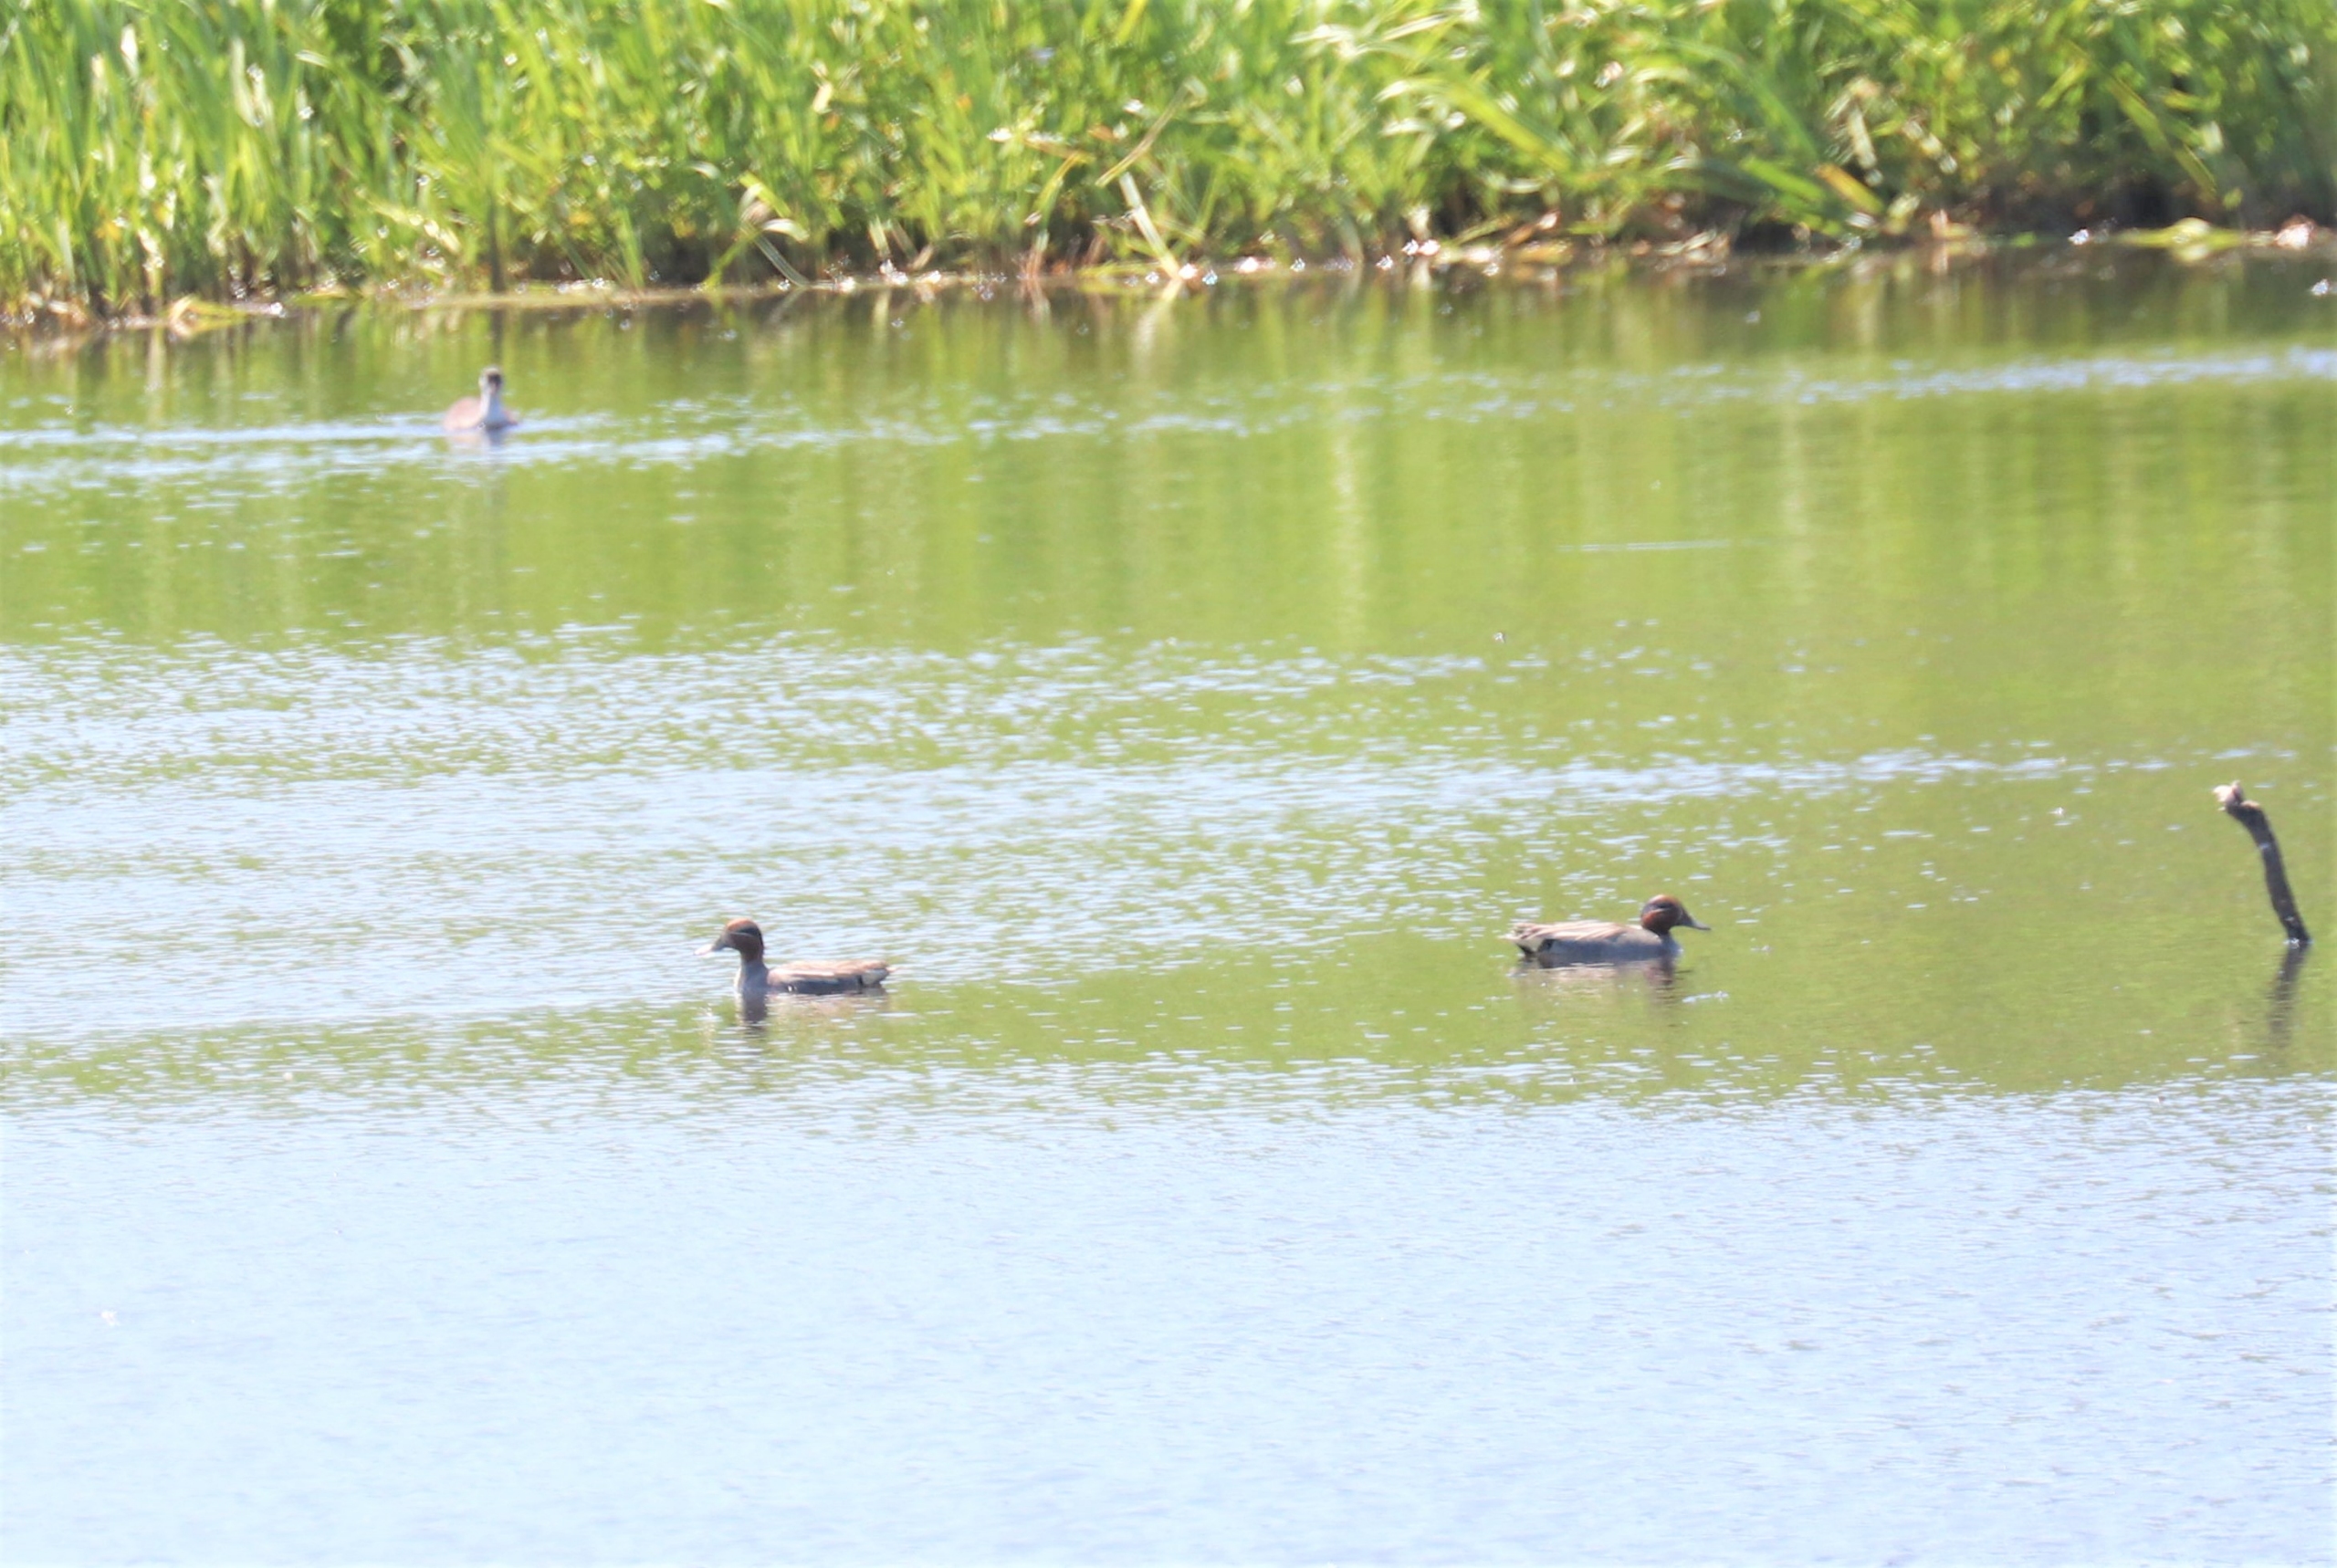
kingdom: Animalia
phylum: Chordata
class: Aves
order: Anseriformes
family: Anatidae
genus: Anas
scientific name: Anas crecca
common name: Krikand
